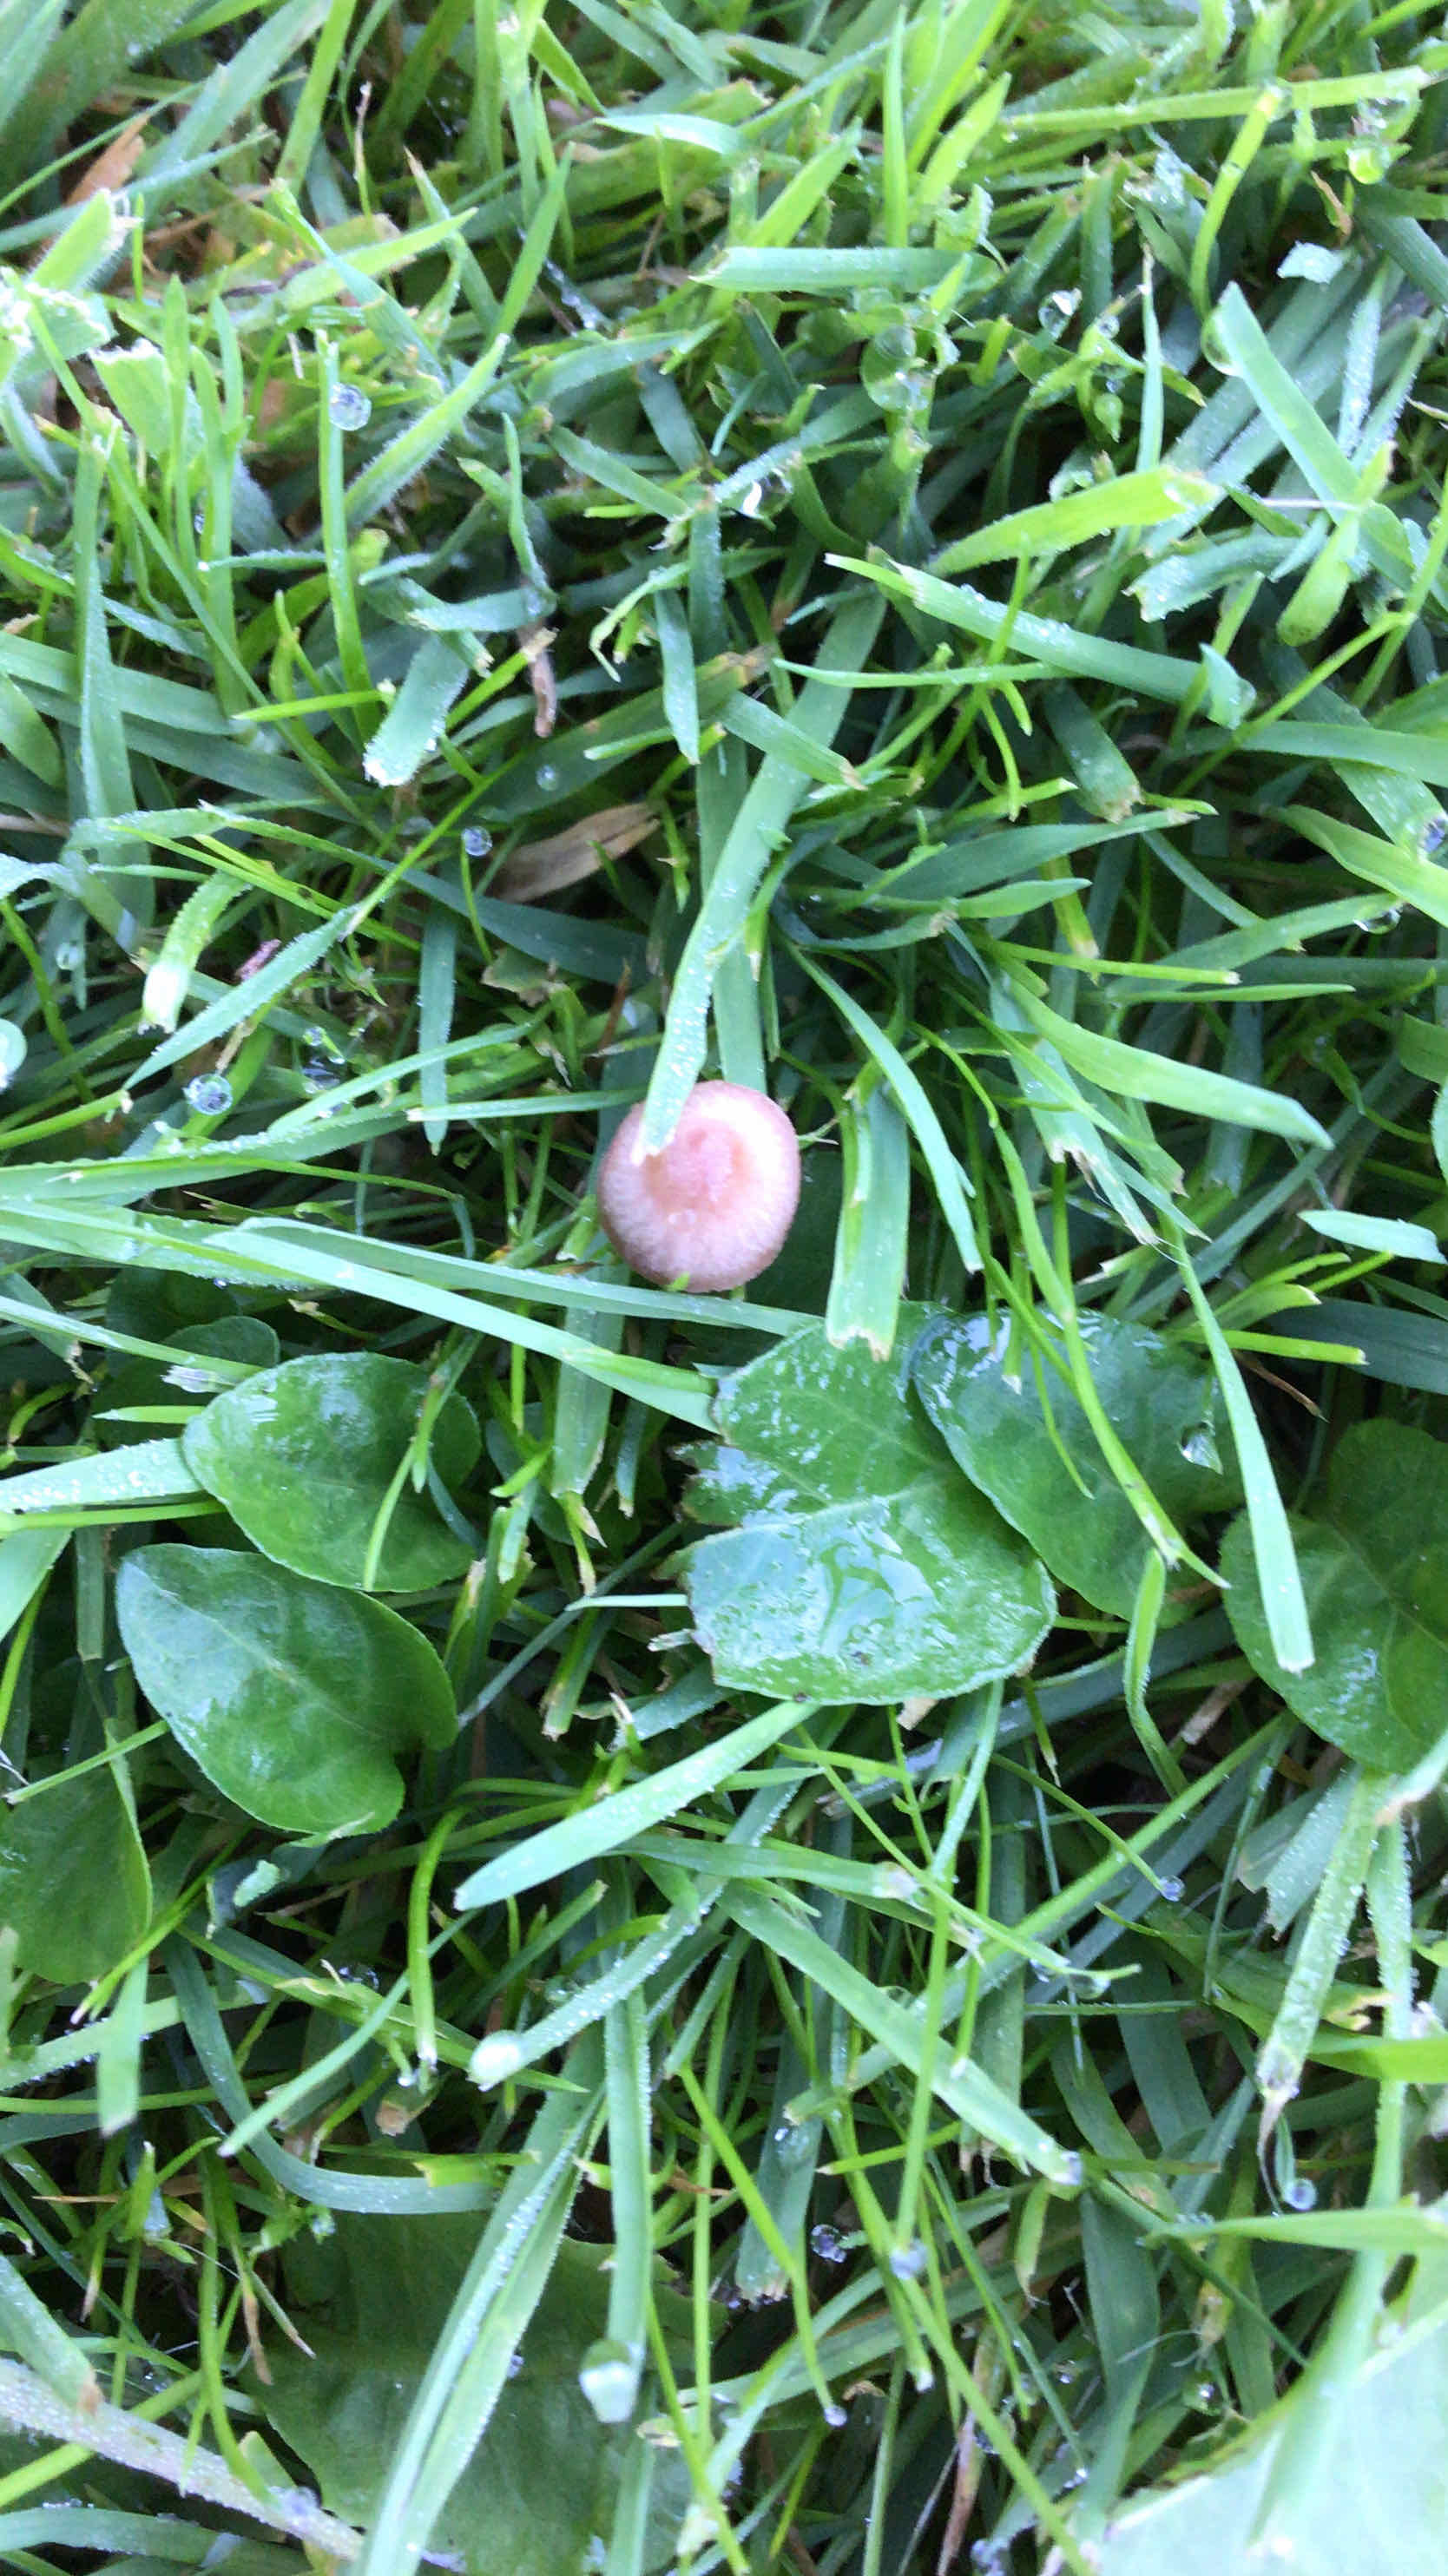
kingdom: Fungi
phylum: Basidiomycota
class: Agaricomycetes
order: Agaricales
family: Bolbitiaceae
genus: Panaeolina
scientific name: Panaeolina foenisecii
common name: høslætsvamp
